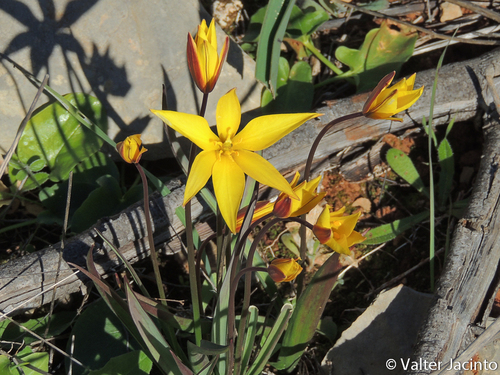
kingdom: Plantae
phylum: Tracheophyta
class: Liliopsida
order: Liliales
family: Liliaceae
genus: Tulipa
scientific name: Tulipa sylvestris
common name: Wild tulip
